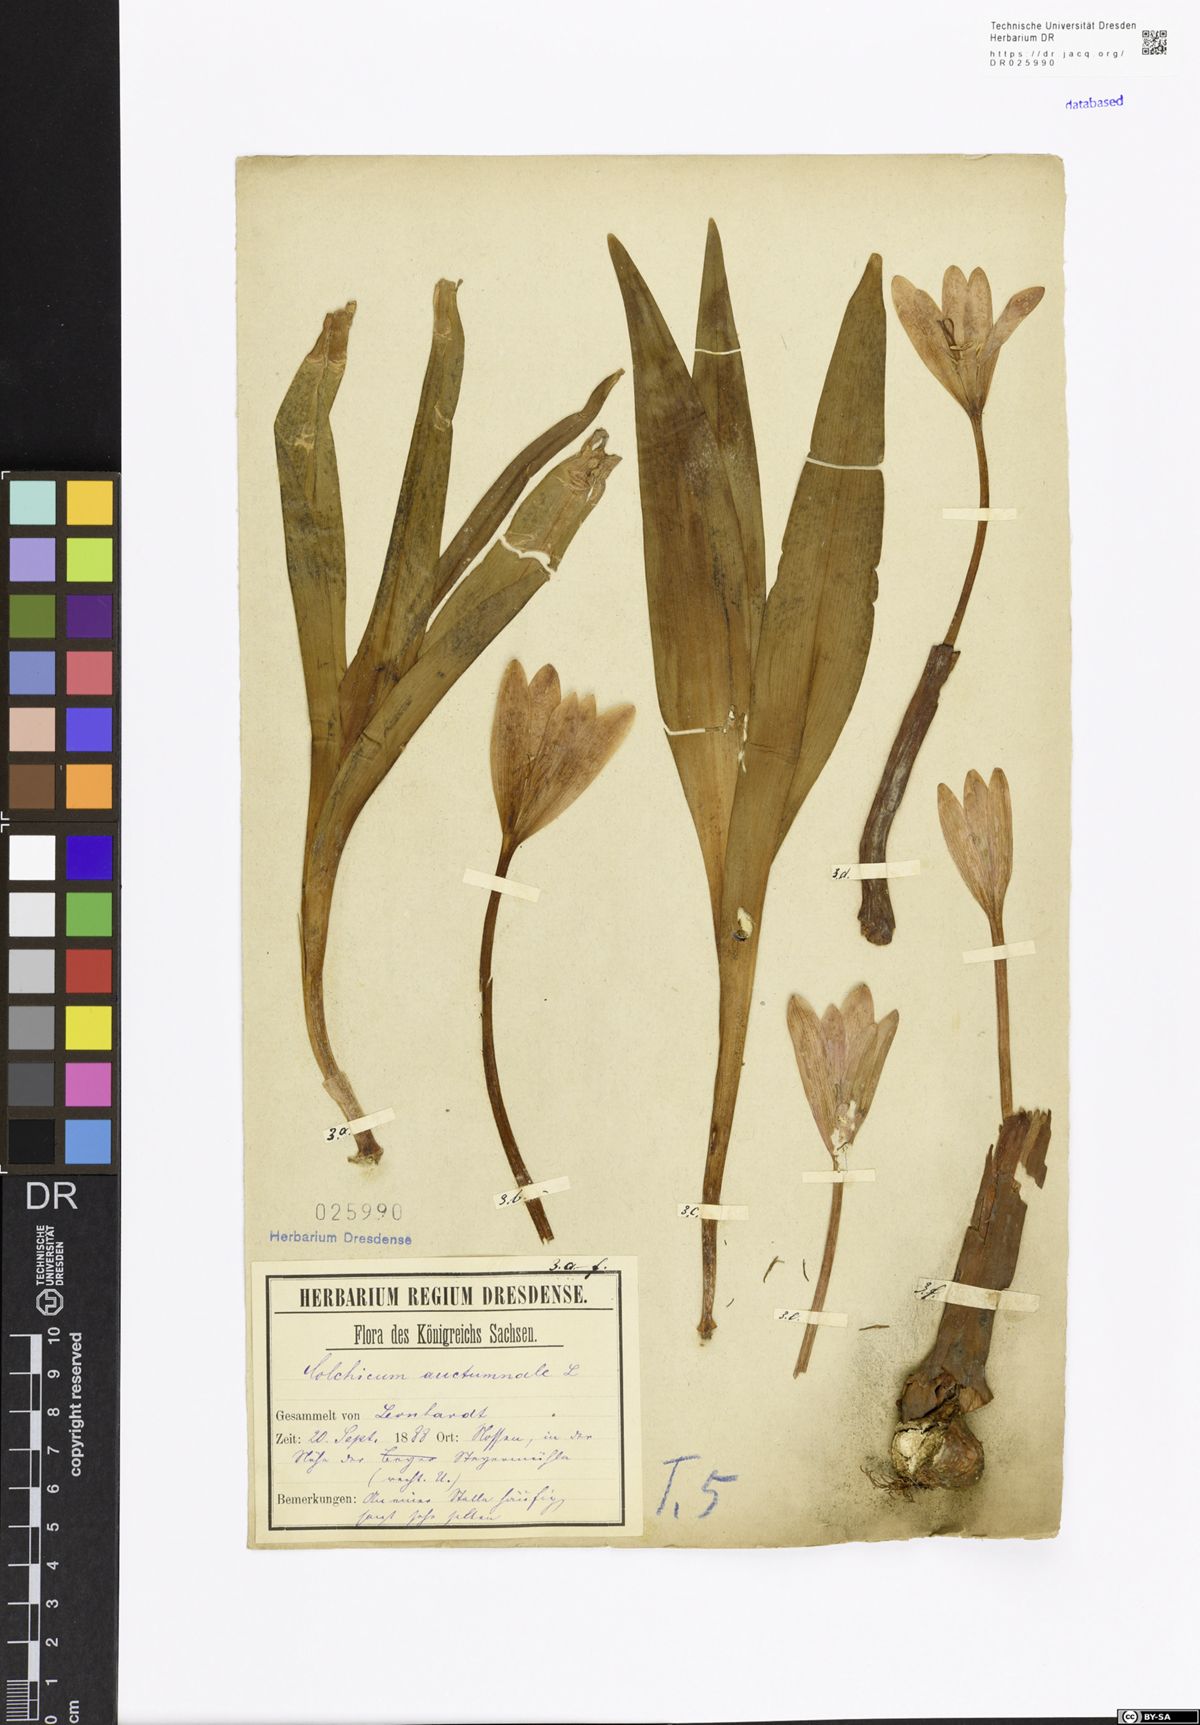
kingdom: Plantae
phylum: Tracheophyta
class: Liliopsida
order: Liliales
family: Colchicaceae
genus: Colchicum
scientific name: Colchicum autumnale
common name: Autumn crocus
